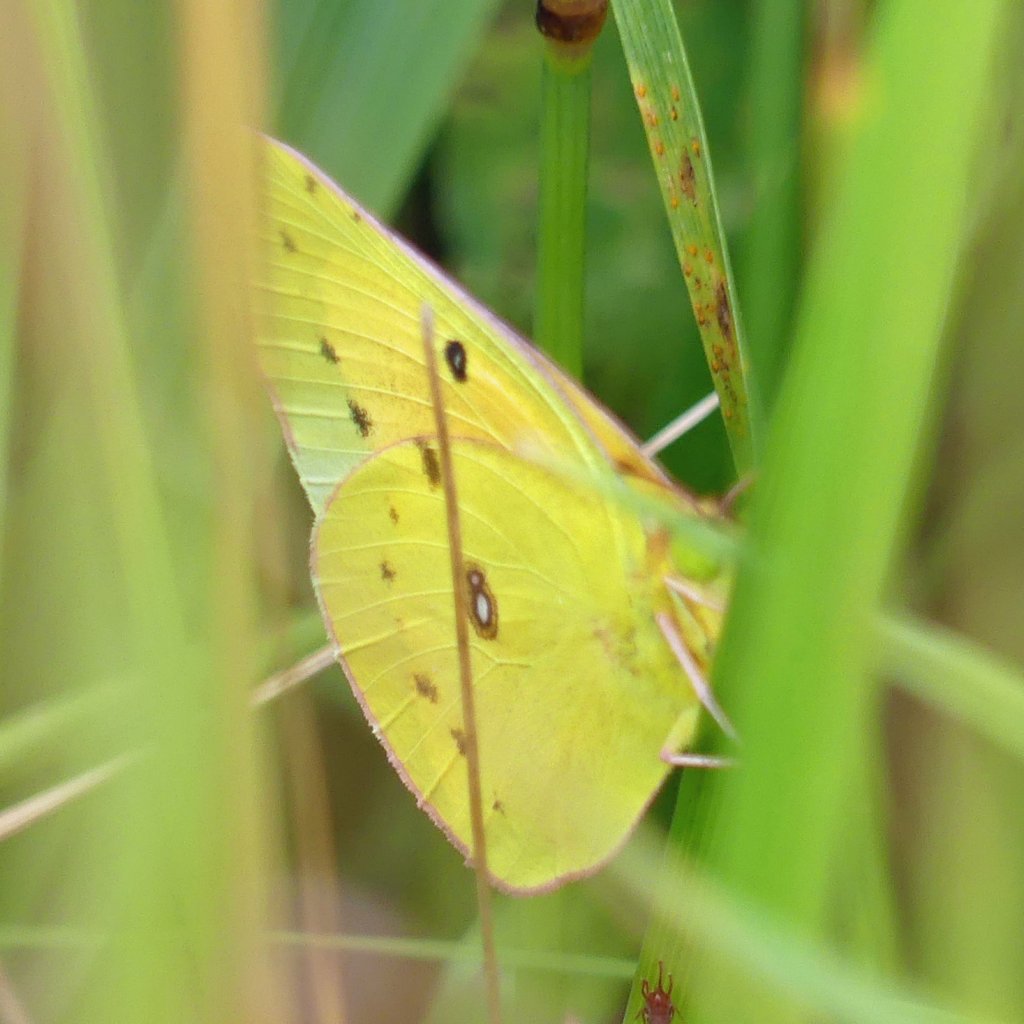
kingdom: Animalia
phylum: Arthropoda
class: Insecta
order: Lepidoptera
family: Pieridae
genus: Colias
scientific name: Colias eurytheme
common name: Orange Sulphur
